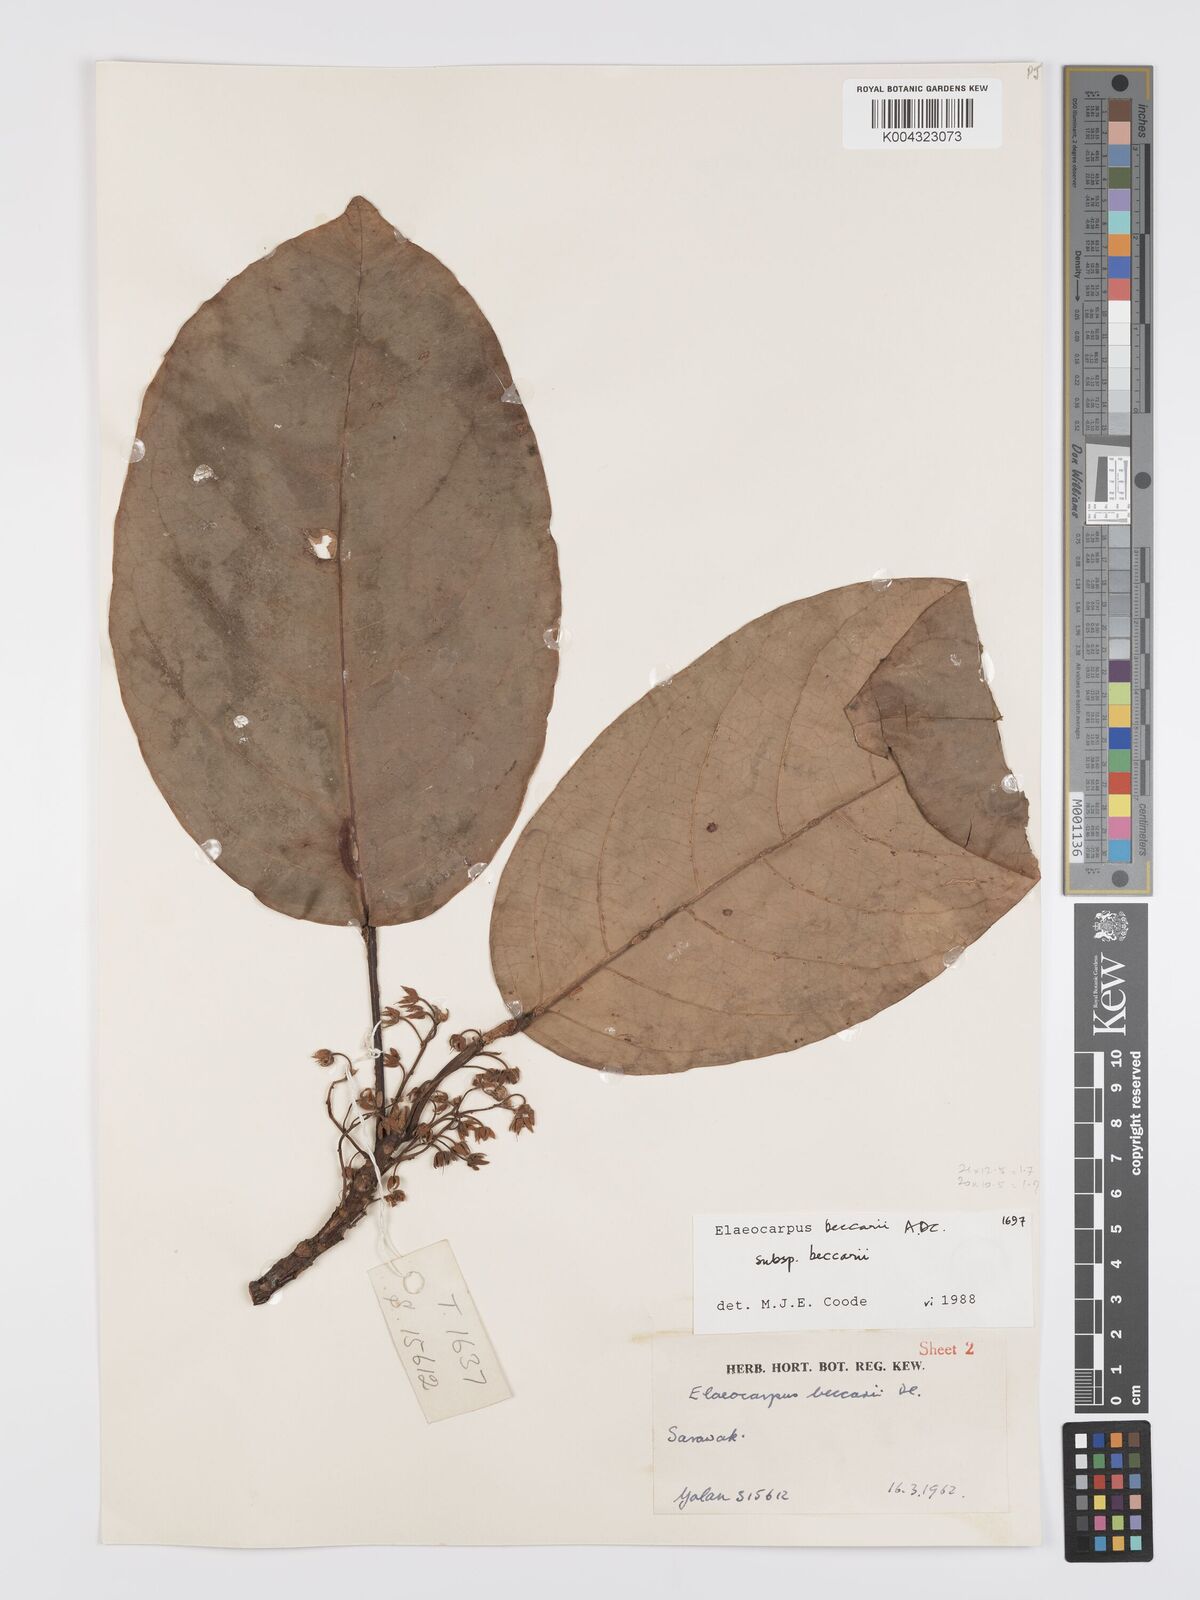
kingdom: Plantae
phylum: Tracheophyta
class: Magnoliopsida
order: Oxalidales
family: Elaeocarpaceae
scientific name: Elaeocarpaceae
